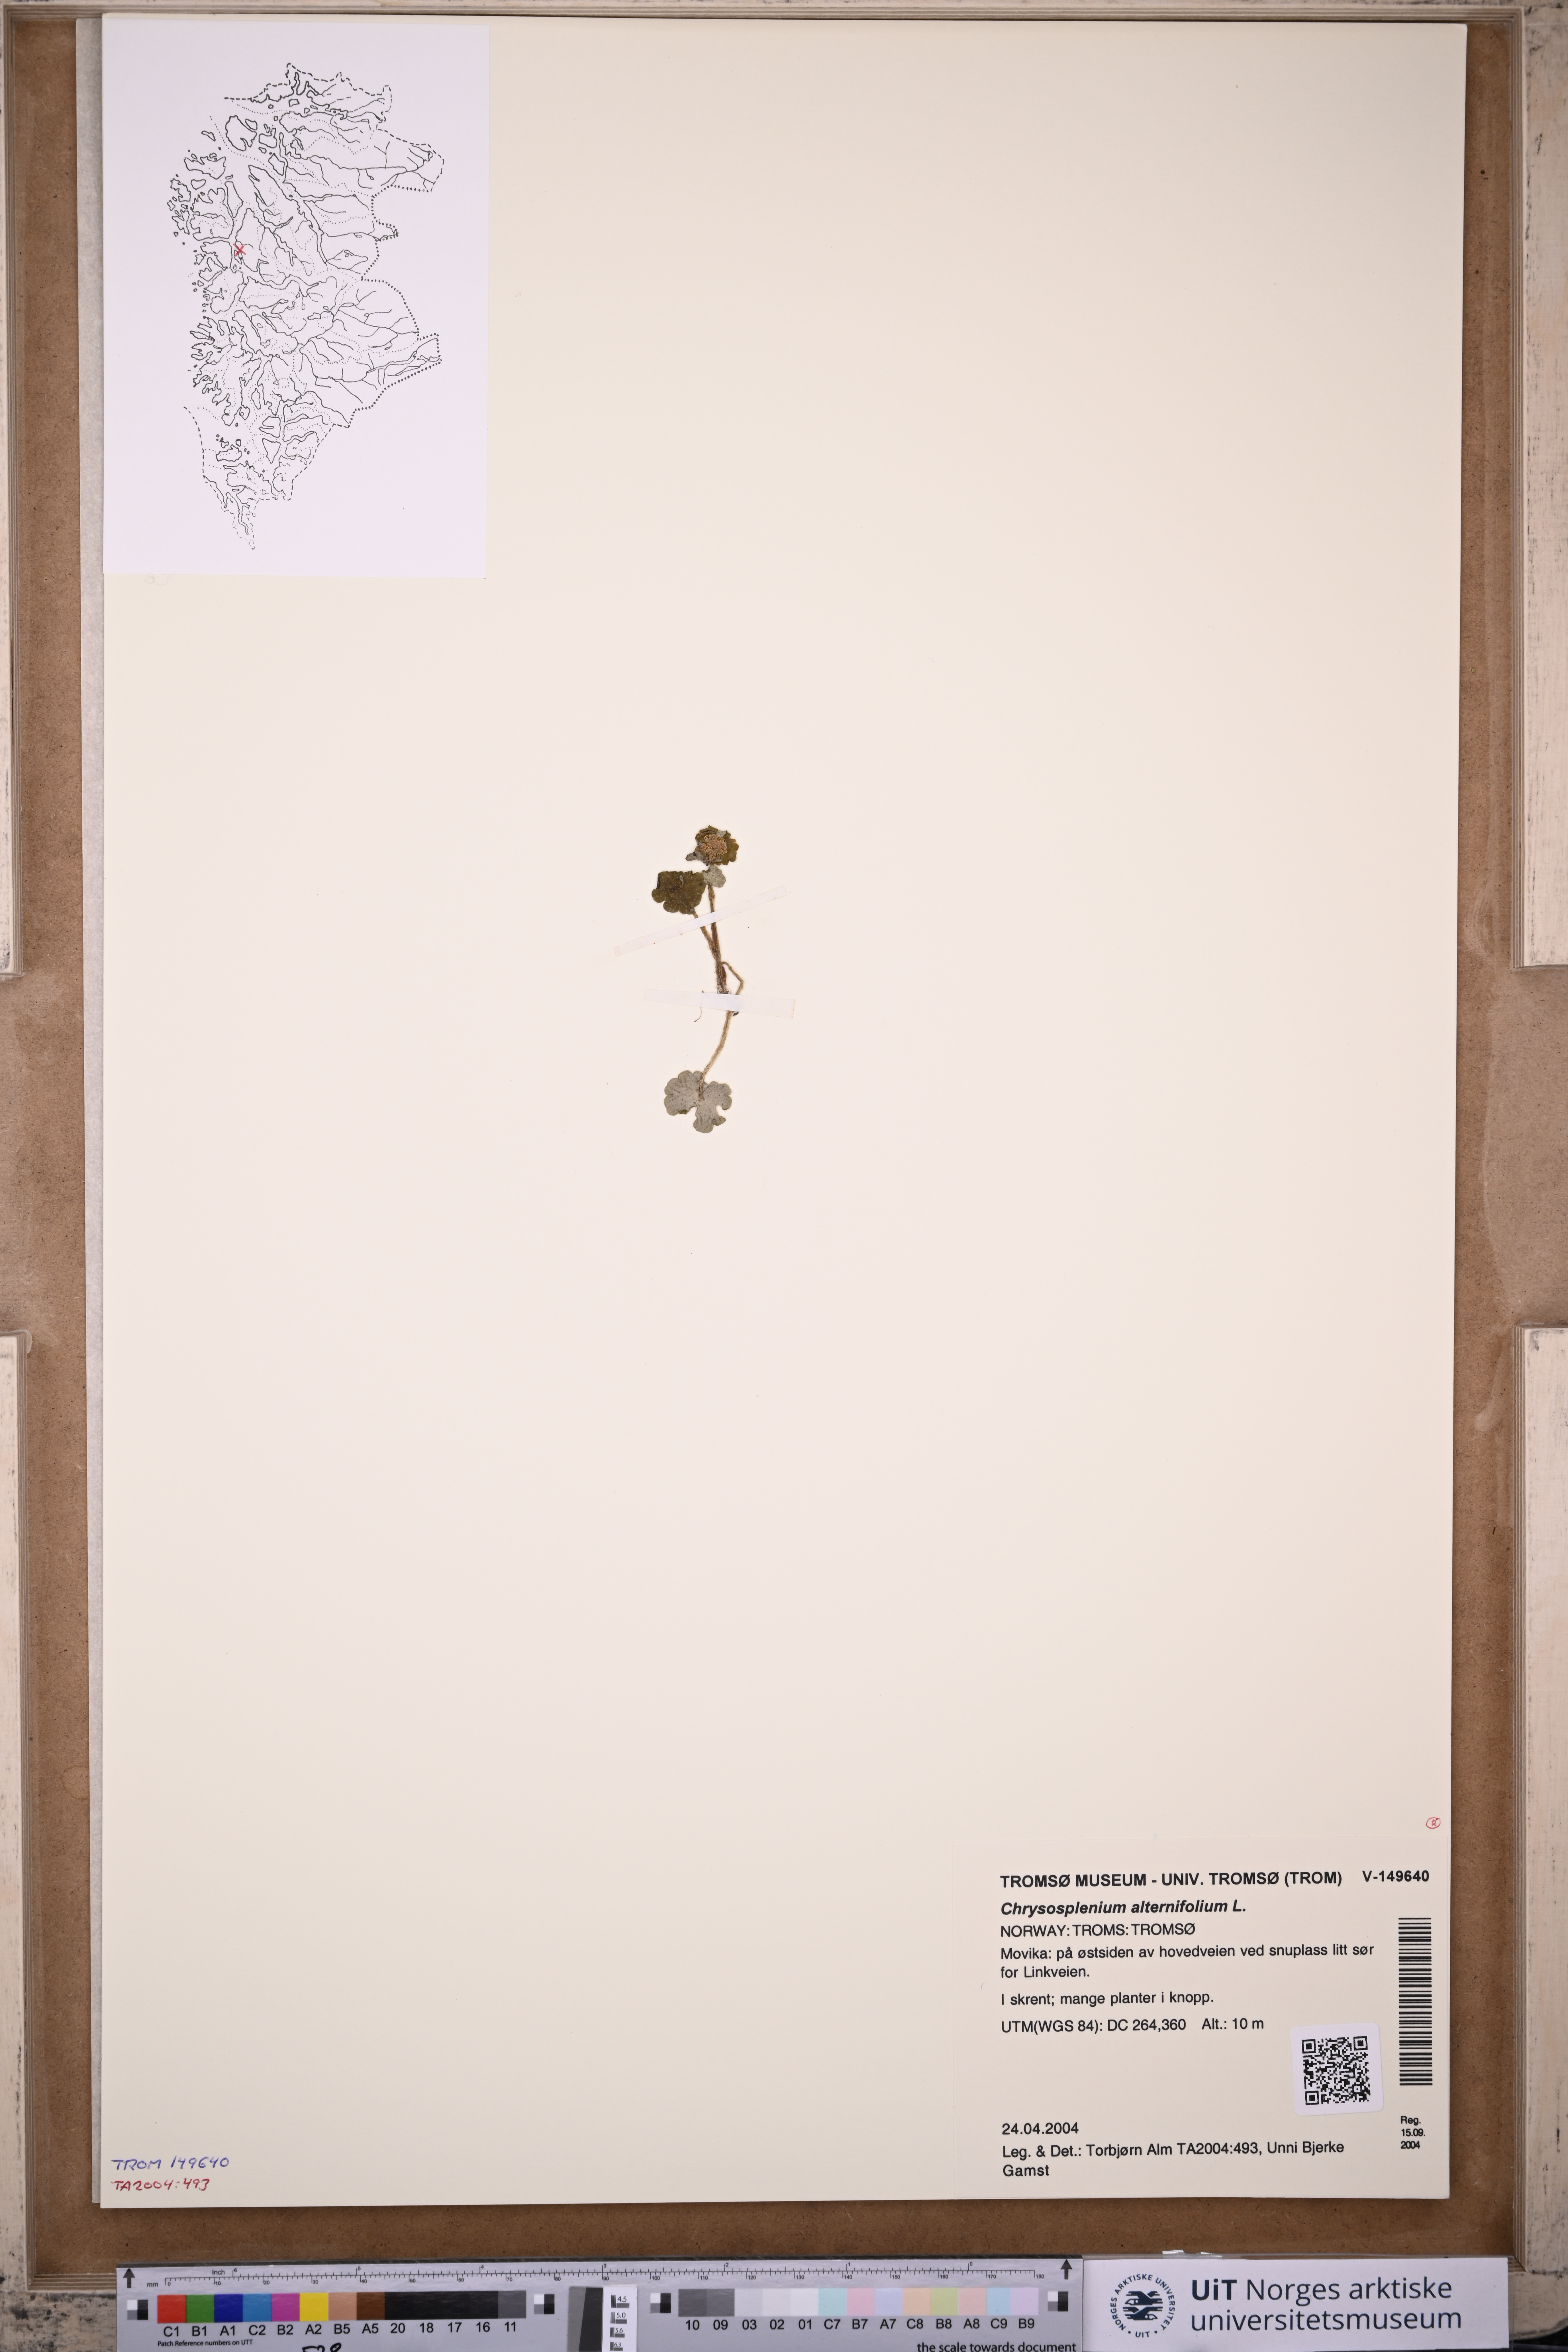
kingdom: Plantae
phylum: Tracheophyta
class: Magnoliopsida
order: Saxifragales
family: Saxifragaceae
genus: Chrysosplenium
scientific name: Chrysosplenium alternifolium
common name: Alternate-leaved golden-saxifrage
